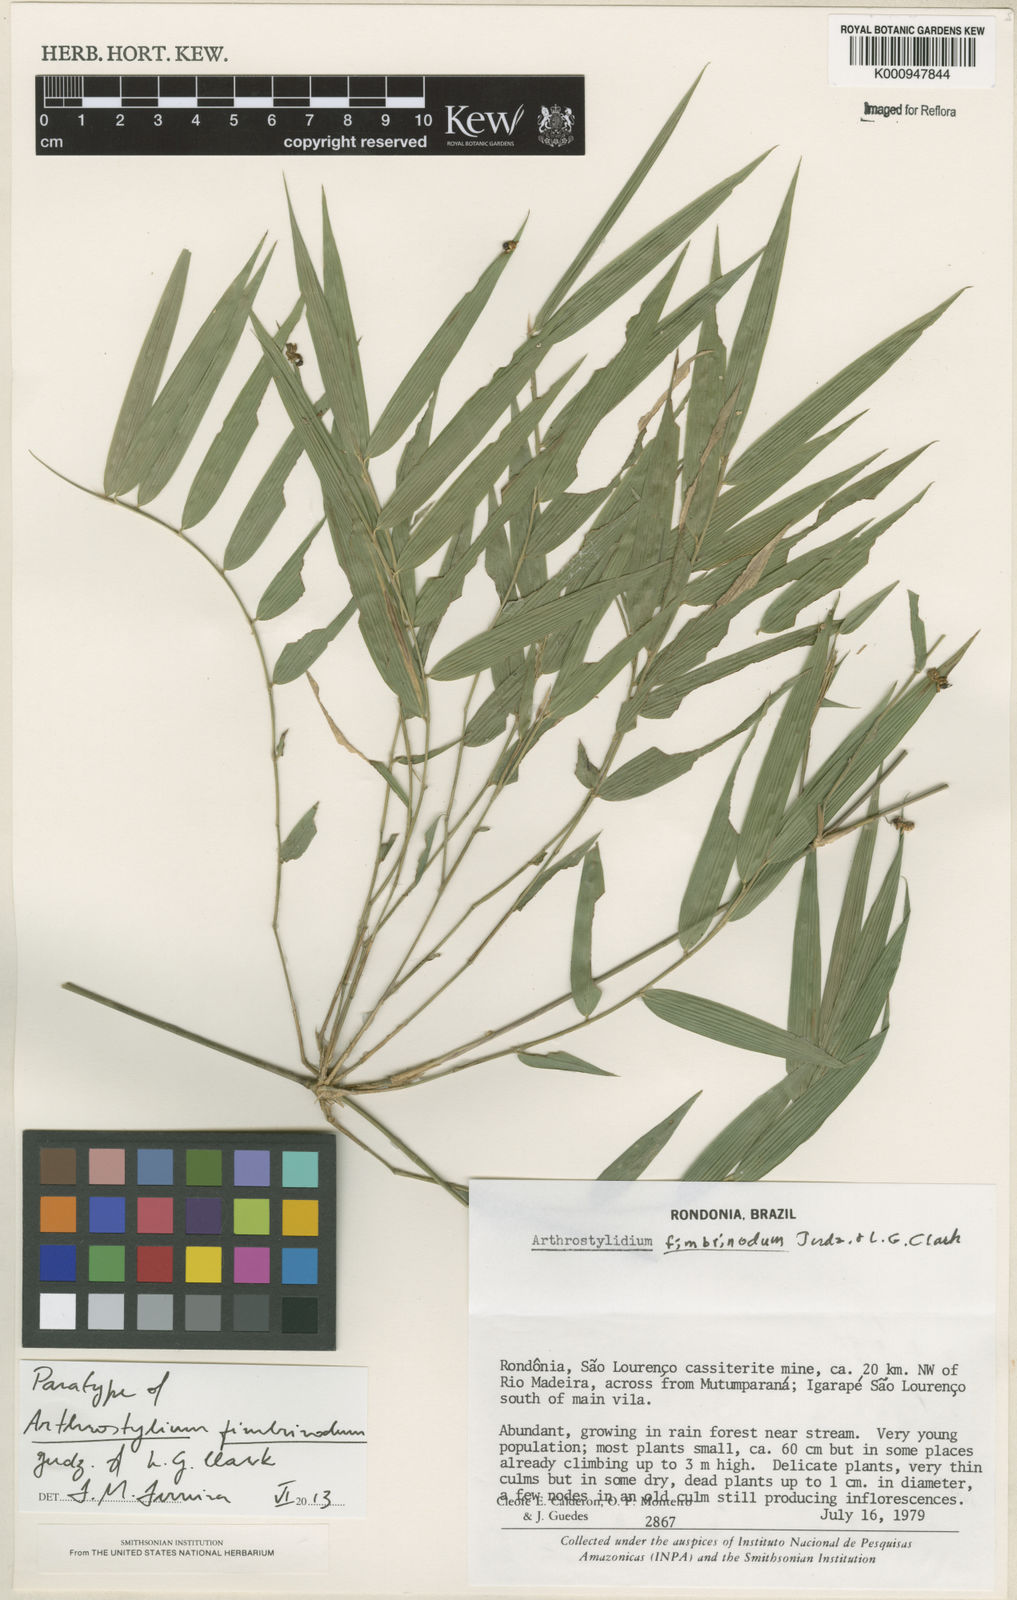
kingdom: Plantae
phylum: Tracheophyta
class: Liliopsida
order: Poales
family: Poaceae
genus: Arthrostylidium
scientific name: Arthrostylidium fimbrinodum
